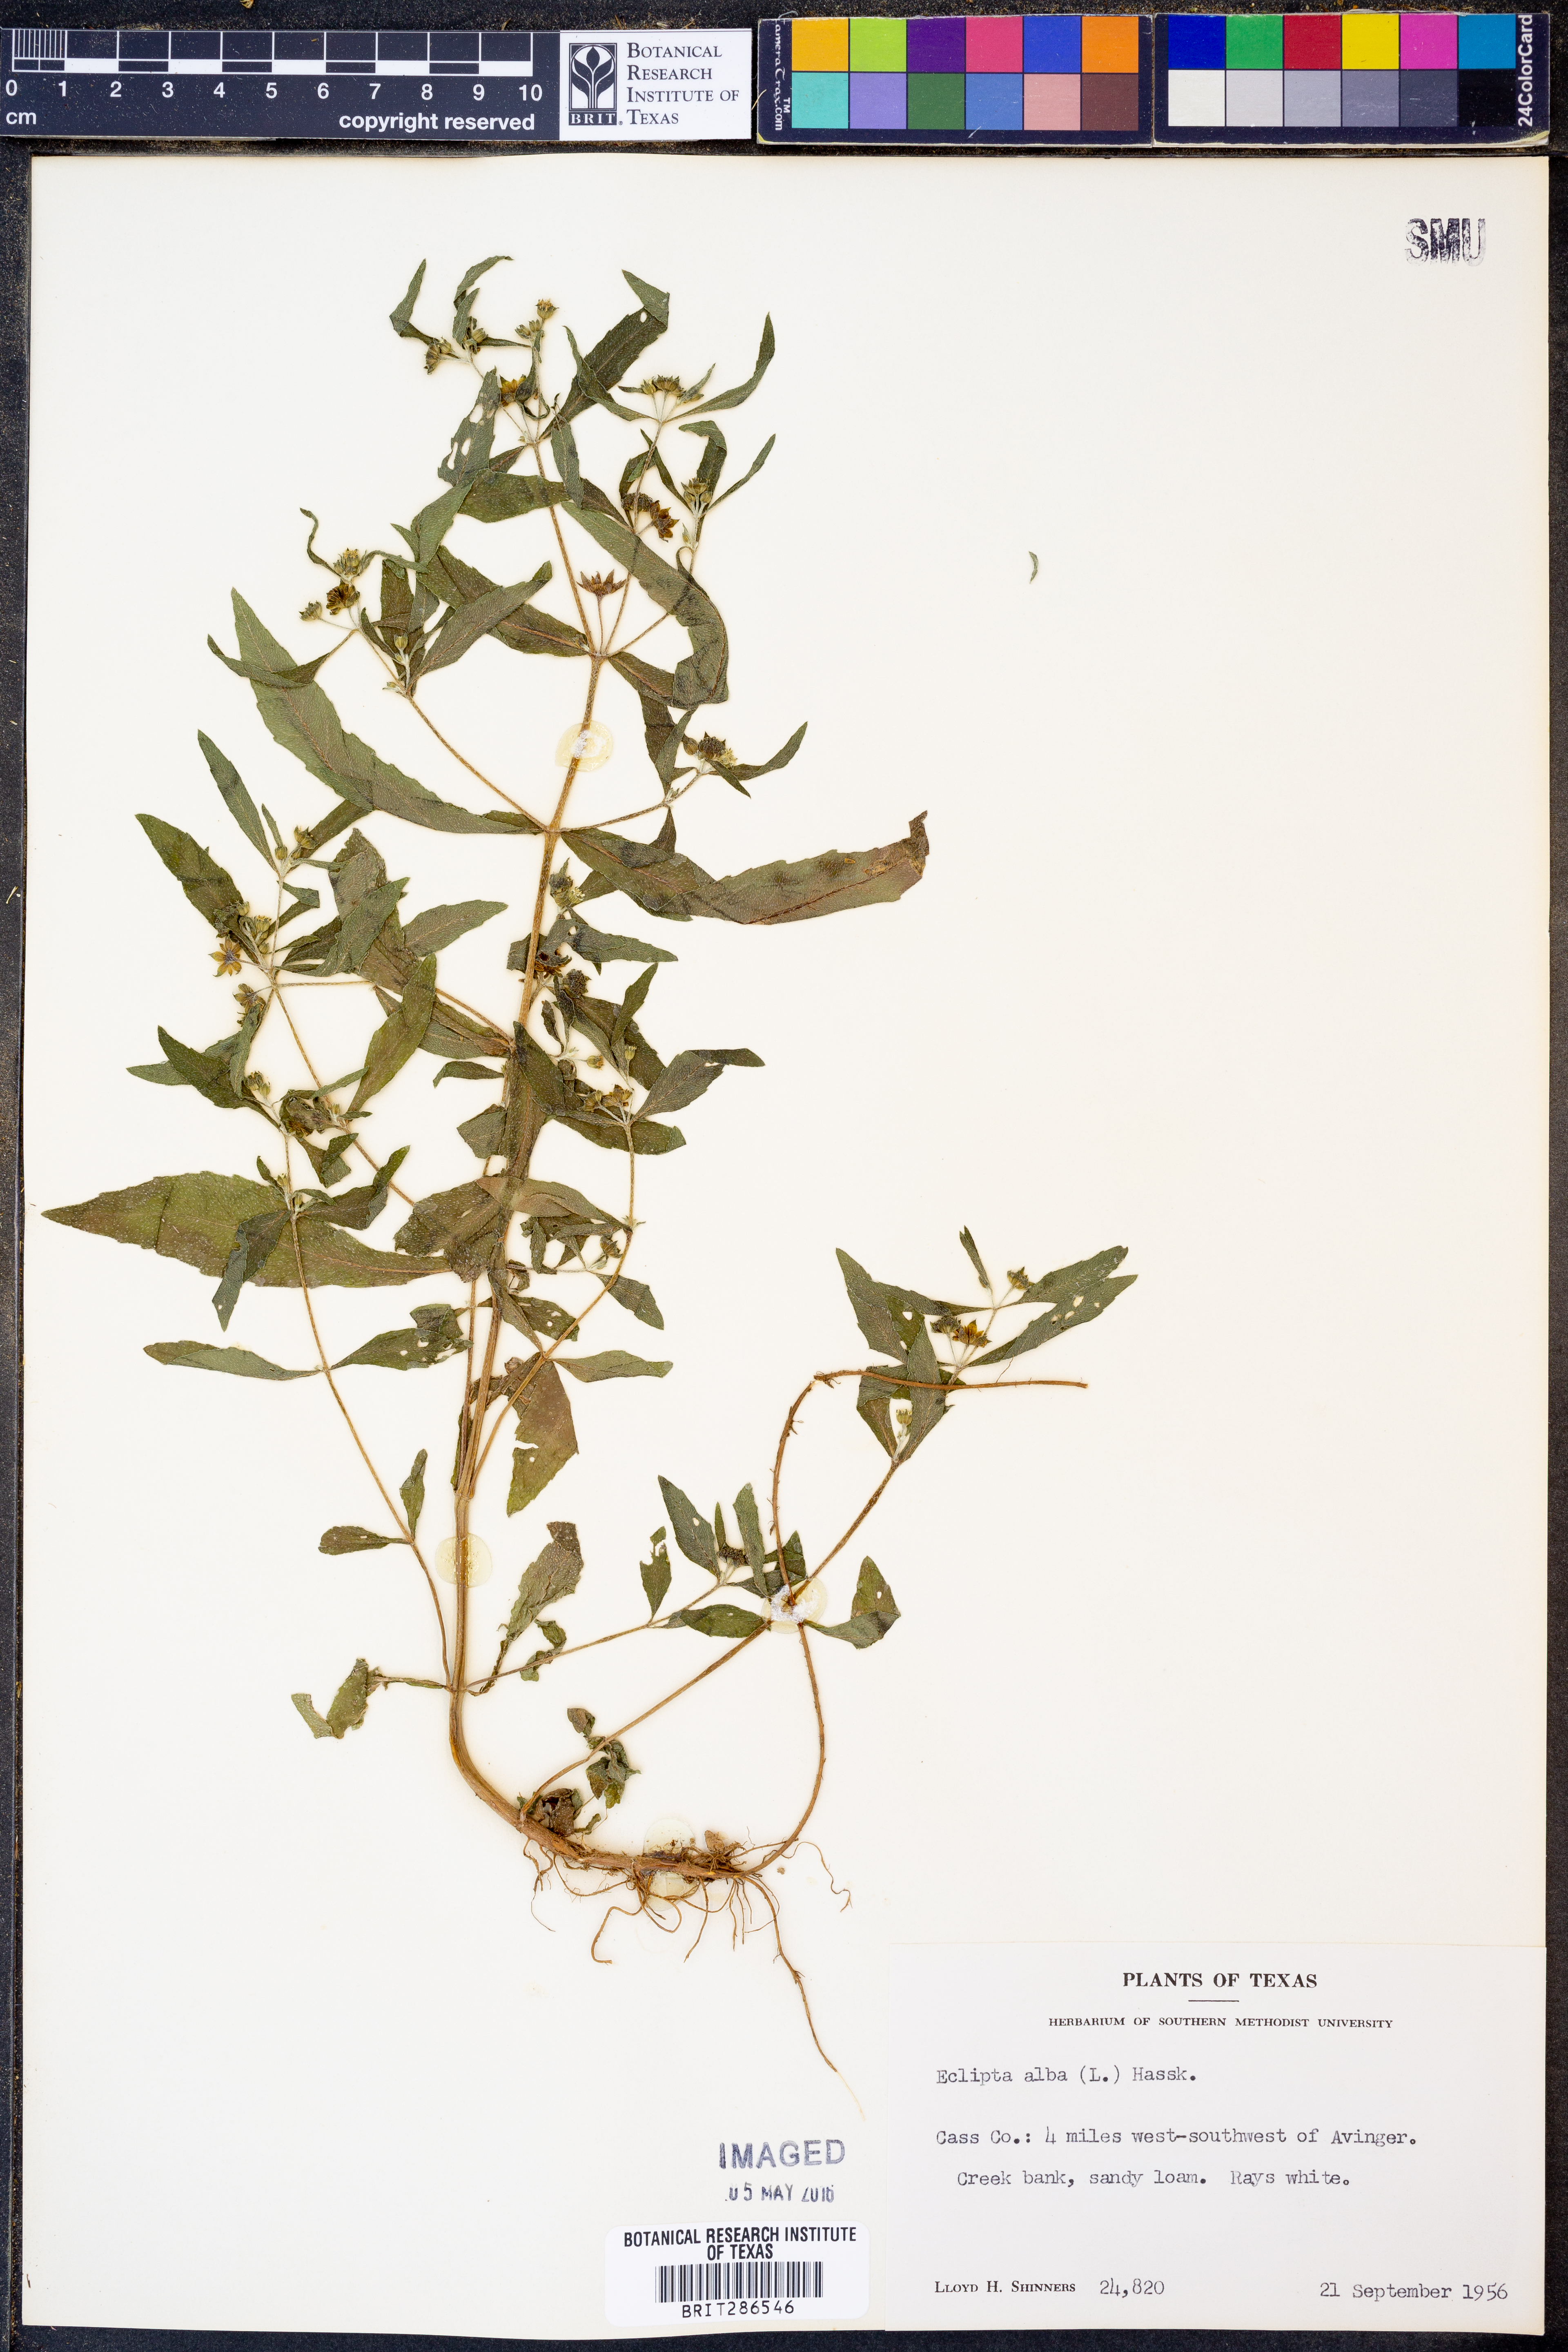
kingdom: Plantae
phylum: Tracheophyta
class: Magnoliopsida
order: Asterales
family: Asteraceae
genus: Eclipta
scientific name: Eclipta alba
